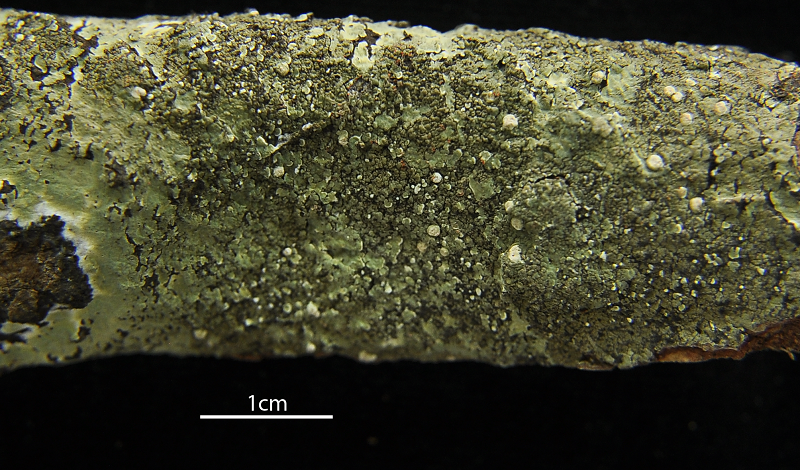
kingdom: Fungi
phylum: Ascomycota
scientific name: Ascomycota
